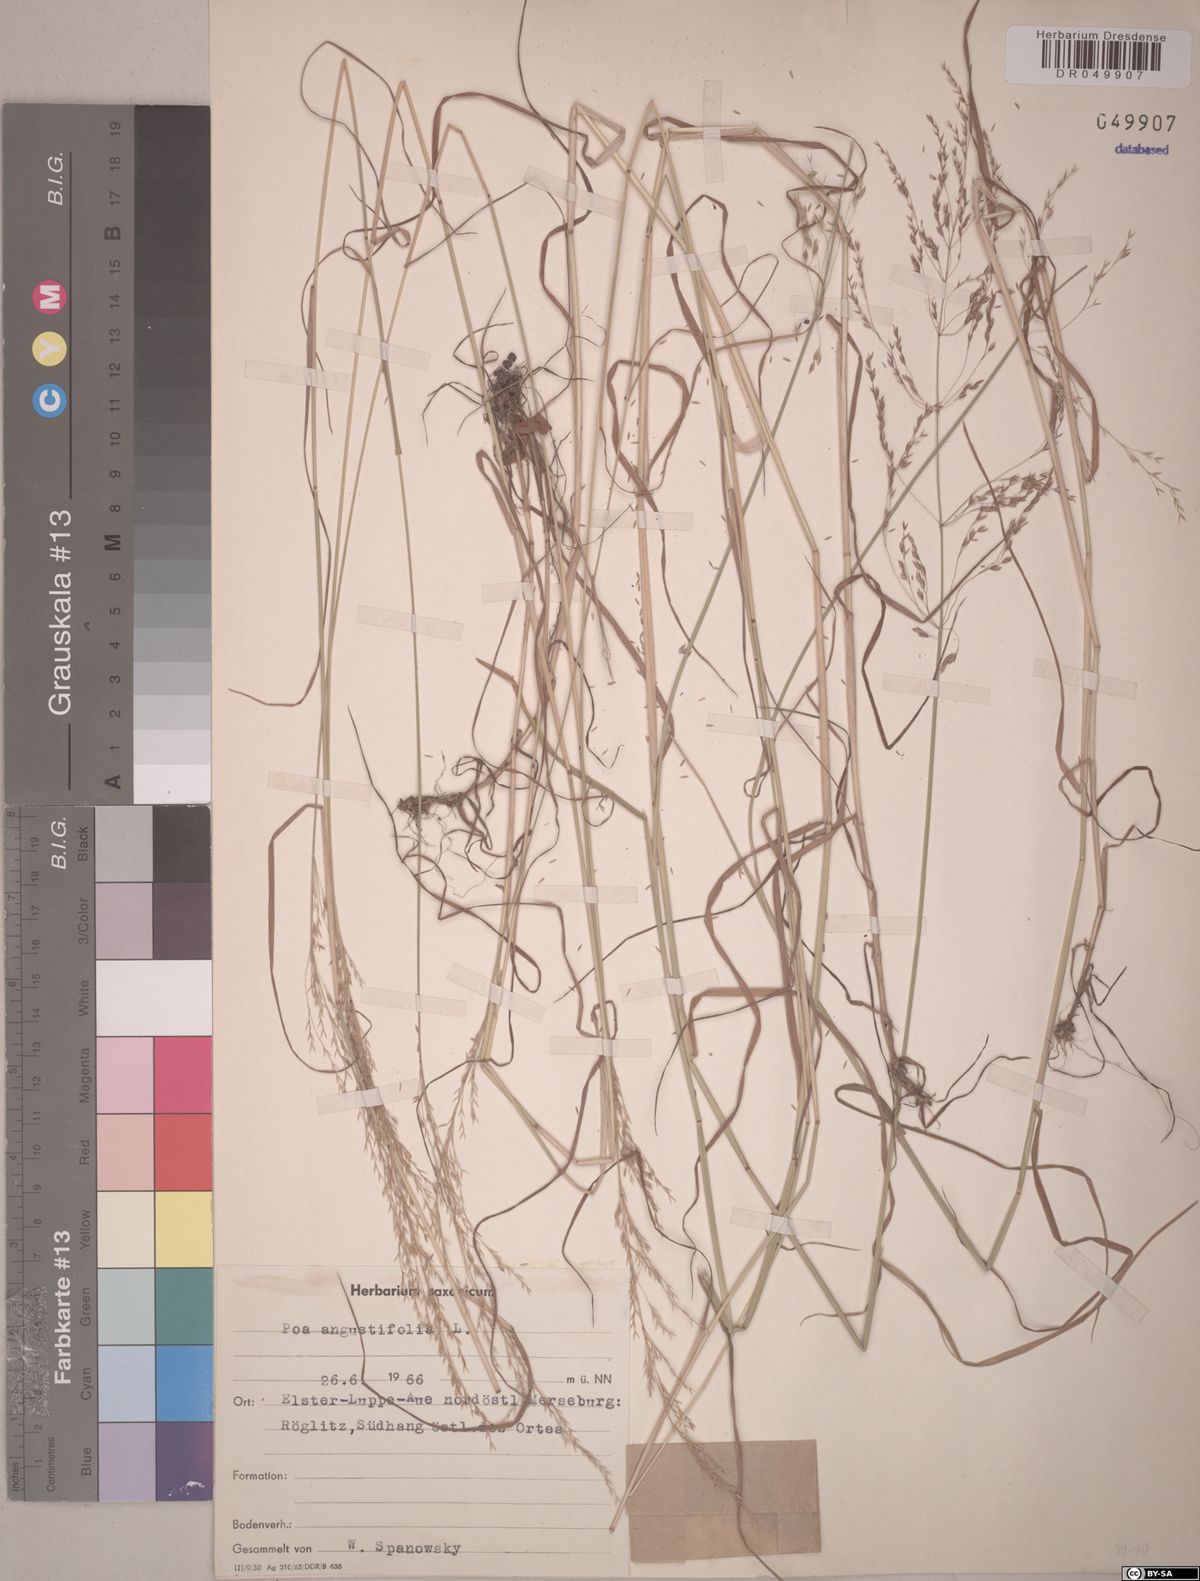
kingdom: Plantae
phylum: Tracheophyta
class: Liliopsida
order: Poales
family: Poaceae
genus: Poa
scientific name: Poa angustifolia
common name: Narrow-leaved meadow-grass
